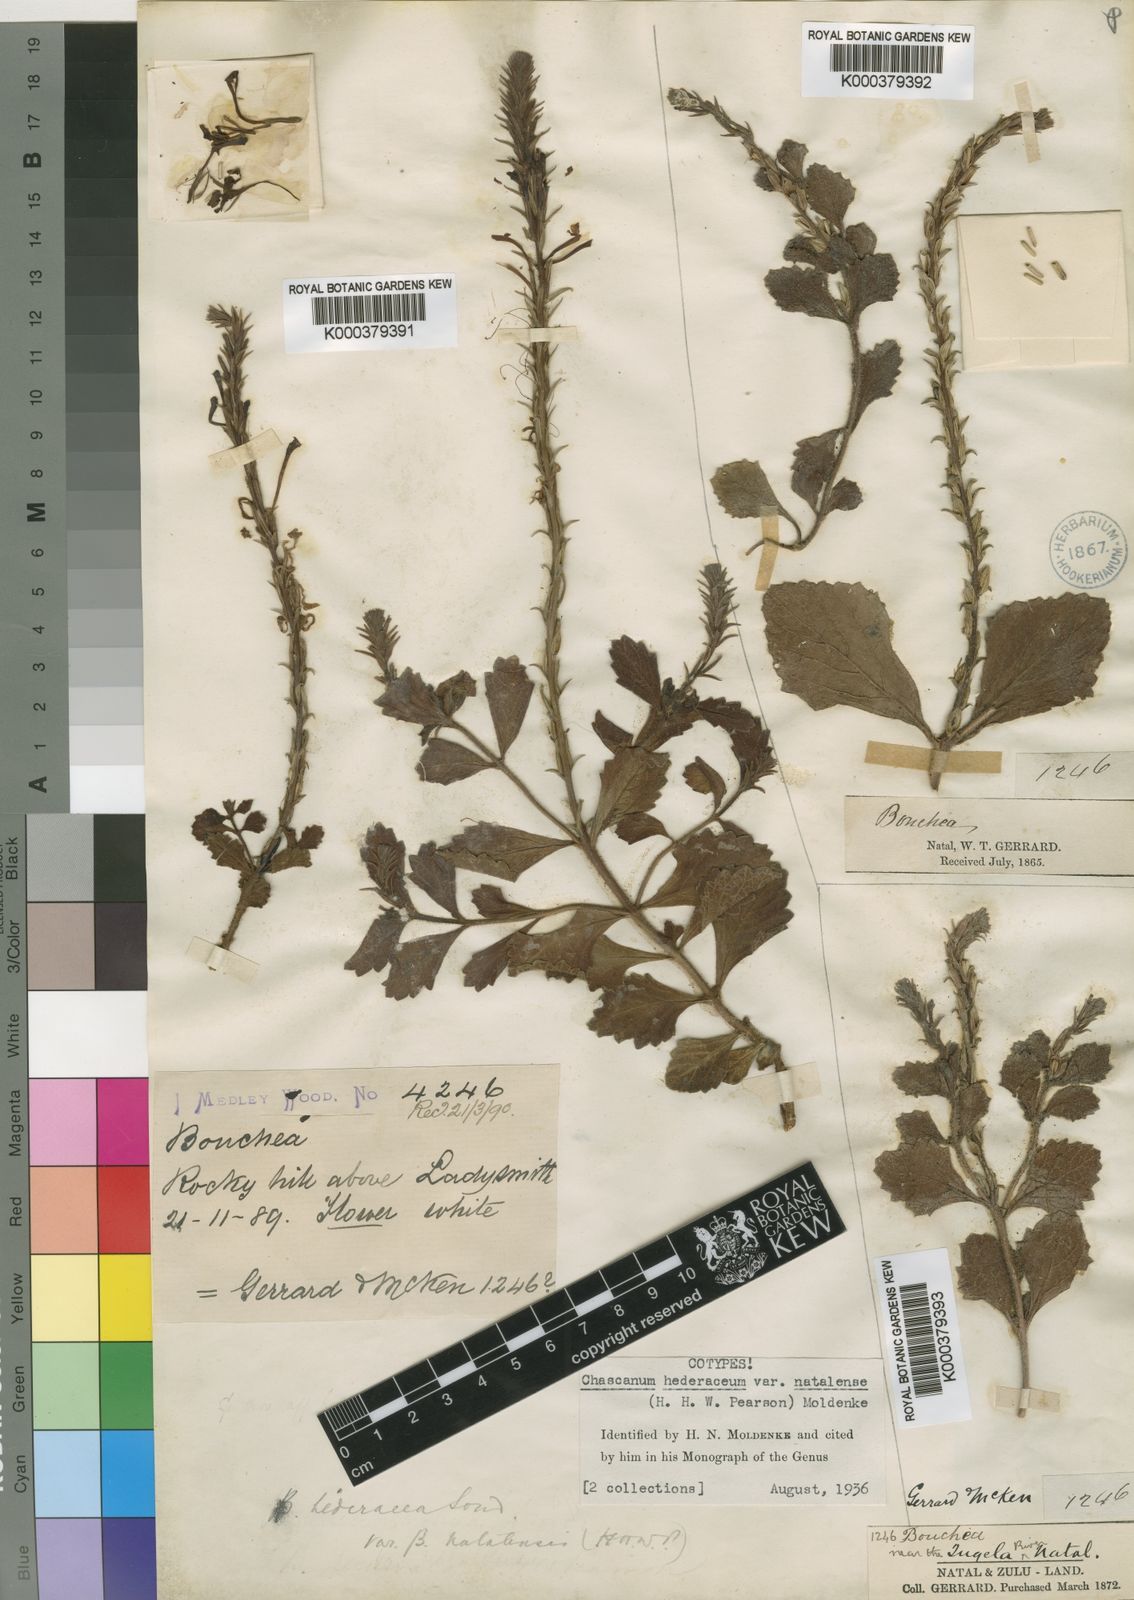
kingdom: Plantae
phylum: Tracheophyta
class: Magnoliopsida
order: Lamiales
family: Verbenaceae
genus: Chascanum
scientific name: Chascanum hederaceum
